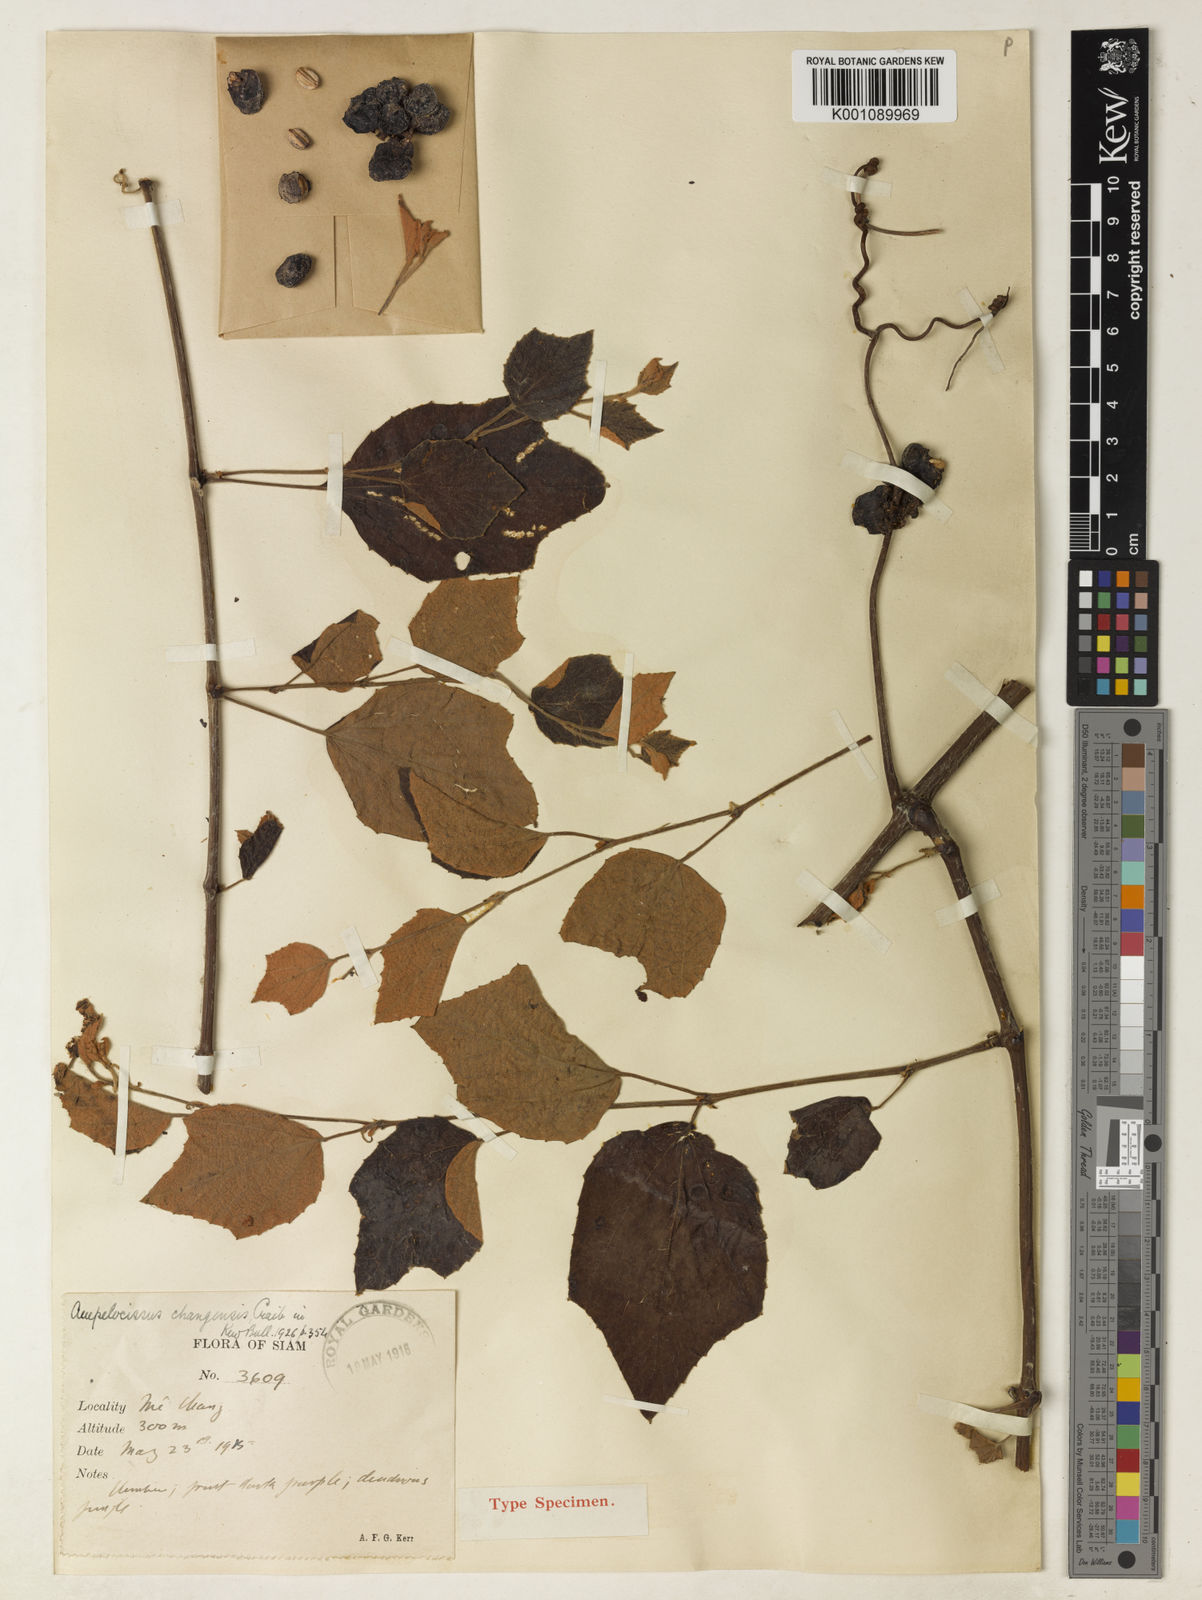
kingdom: Plantae
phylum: Tracheophyta
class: Magnoliopsida
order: Vitales
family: Vitaceae
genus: Ampelocissus
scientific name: Ampelocissus changensis
